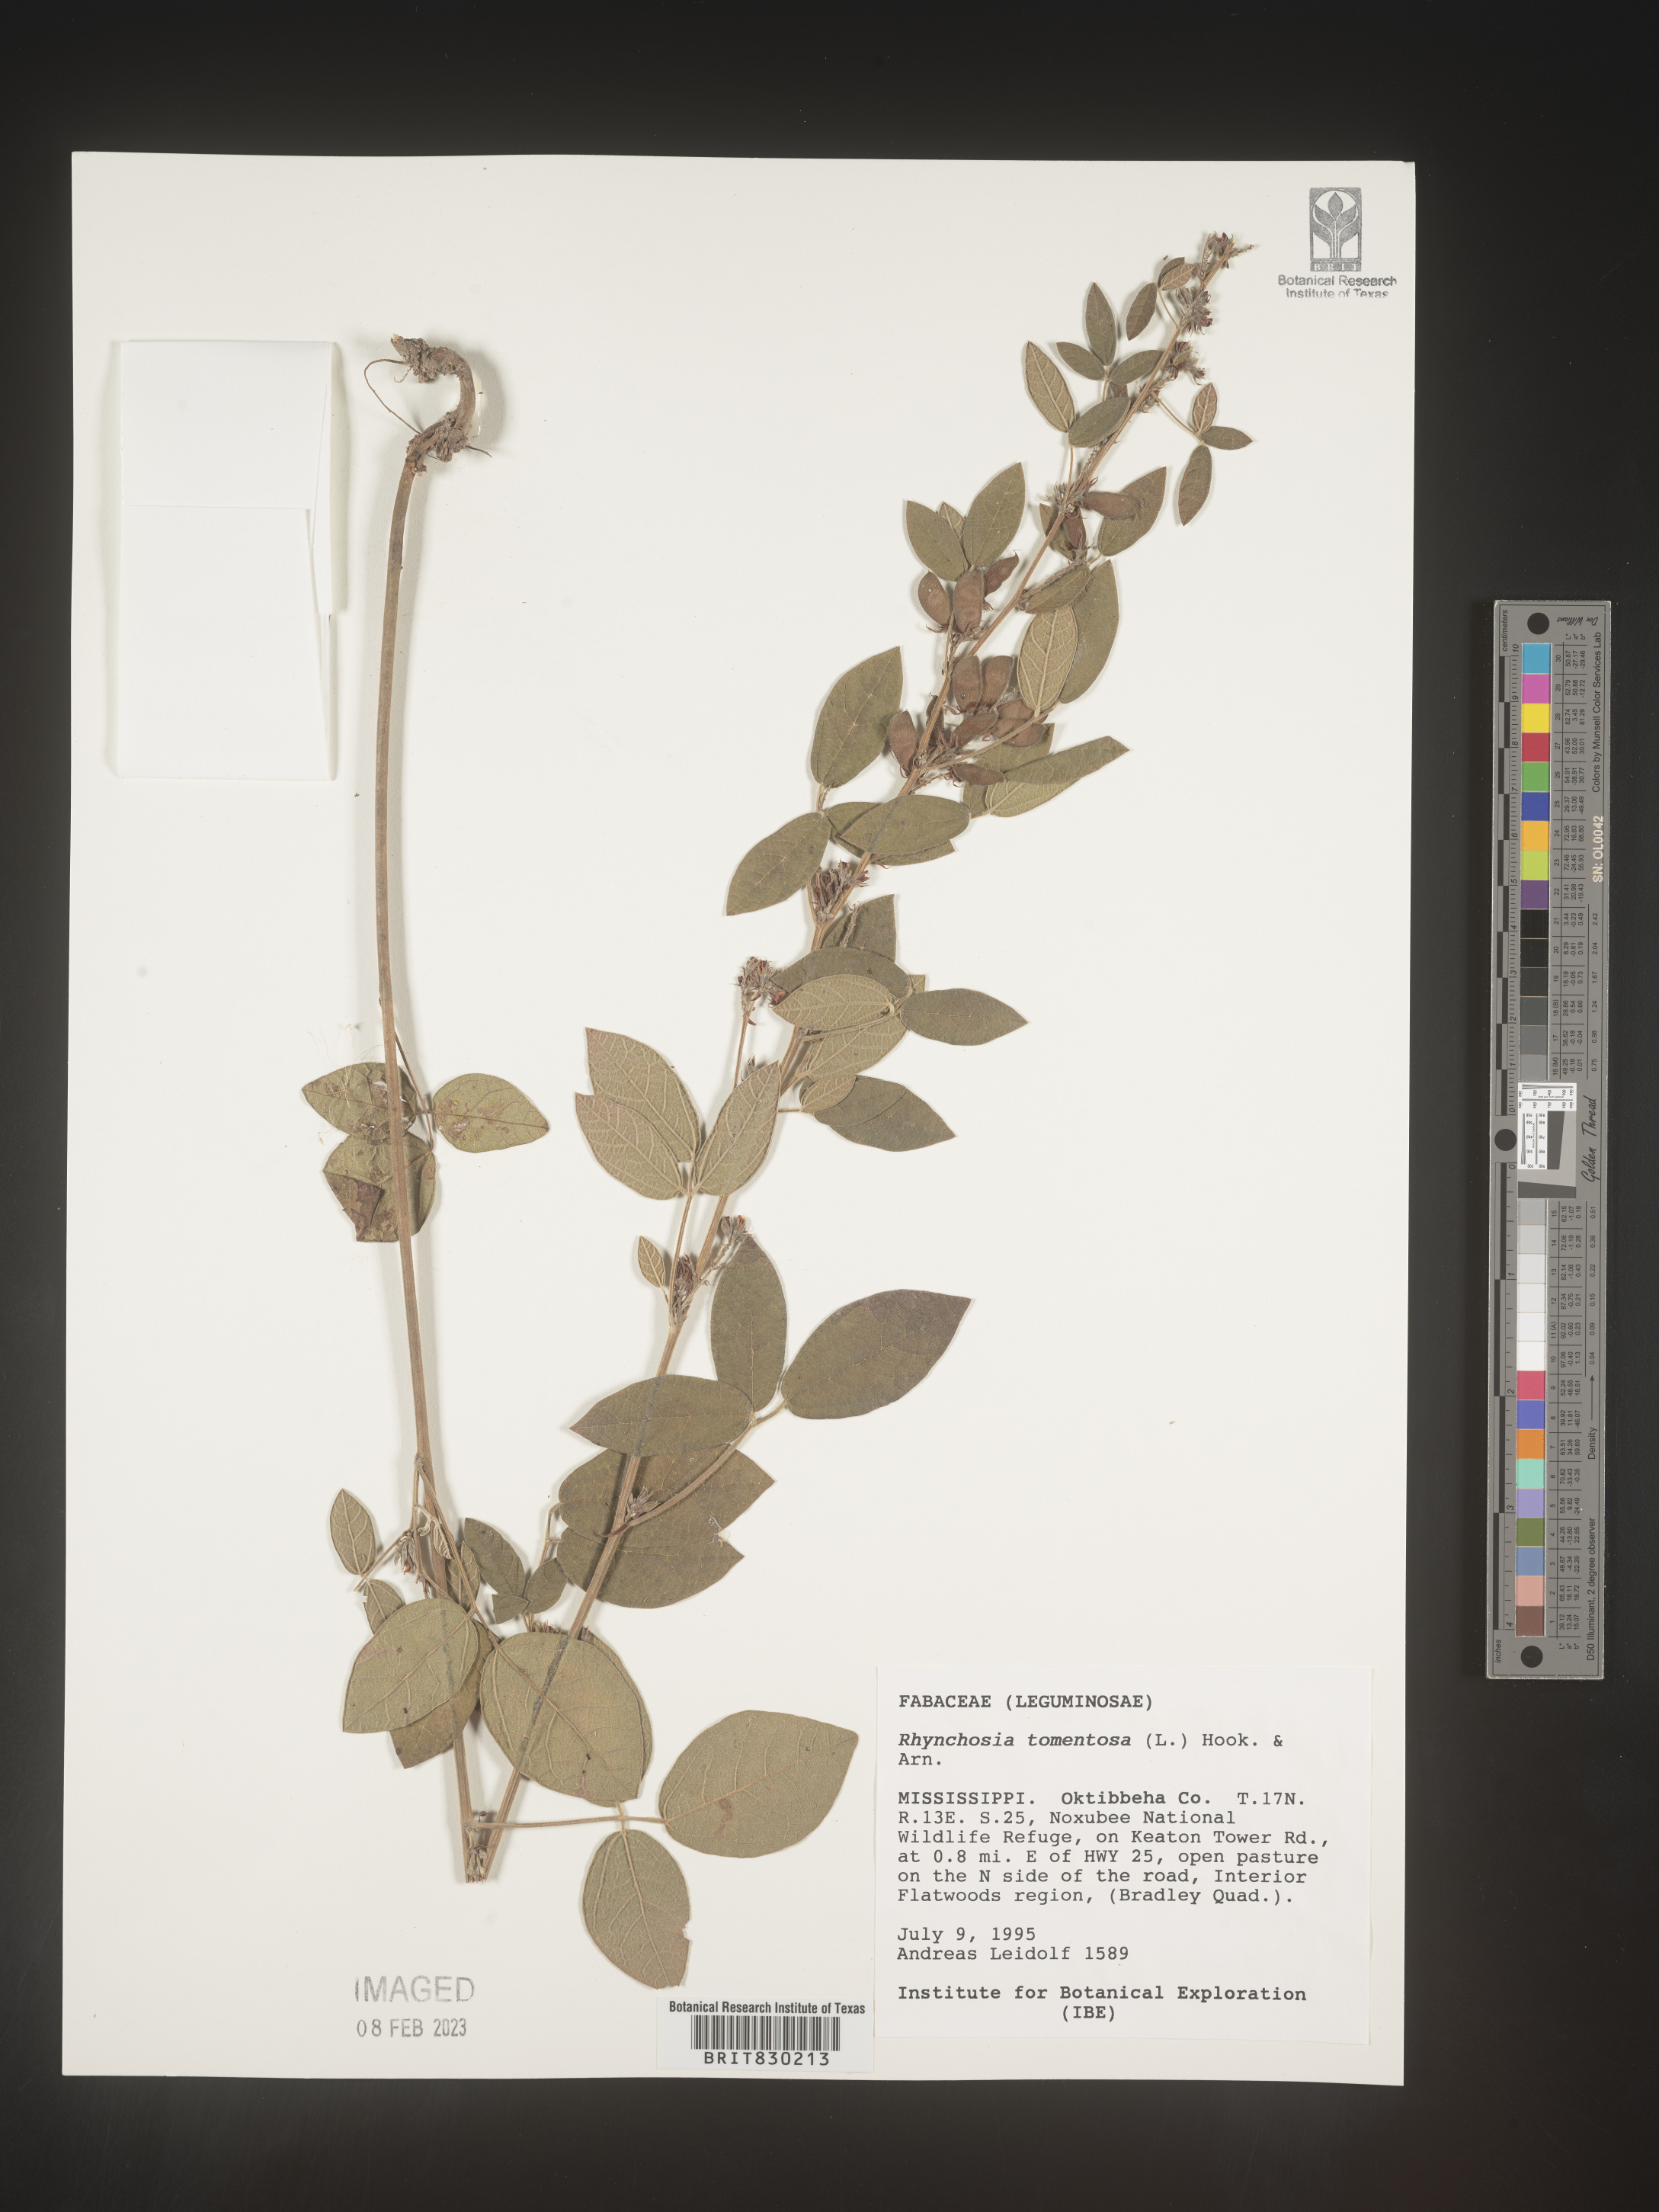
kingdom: Plantae
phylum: Tracheophyta
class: Magnoliopsida
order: Fabales
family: Fabaceae
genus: Rhynchosia
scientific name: Rhynchosia rothii
